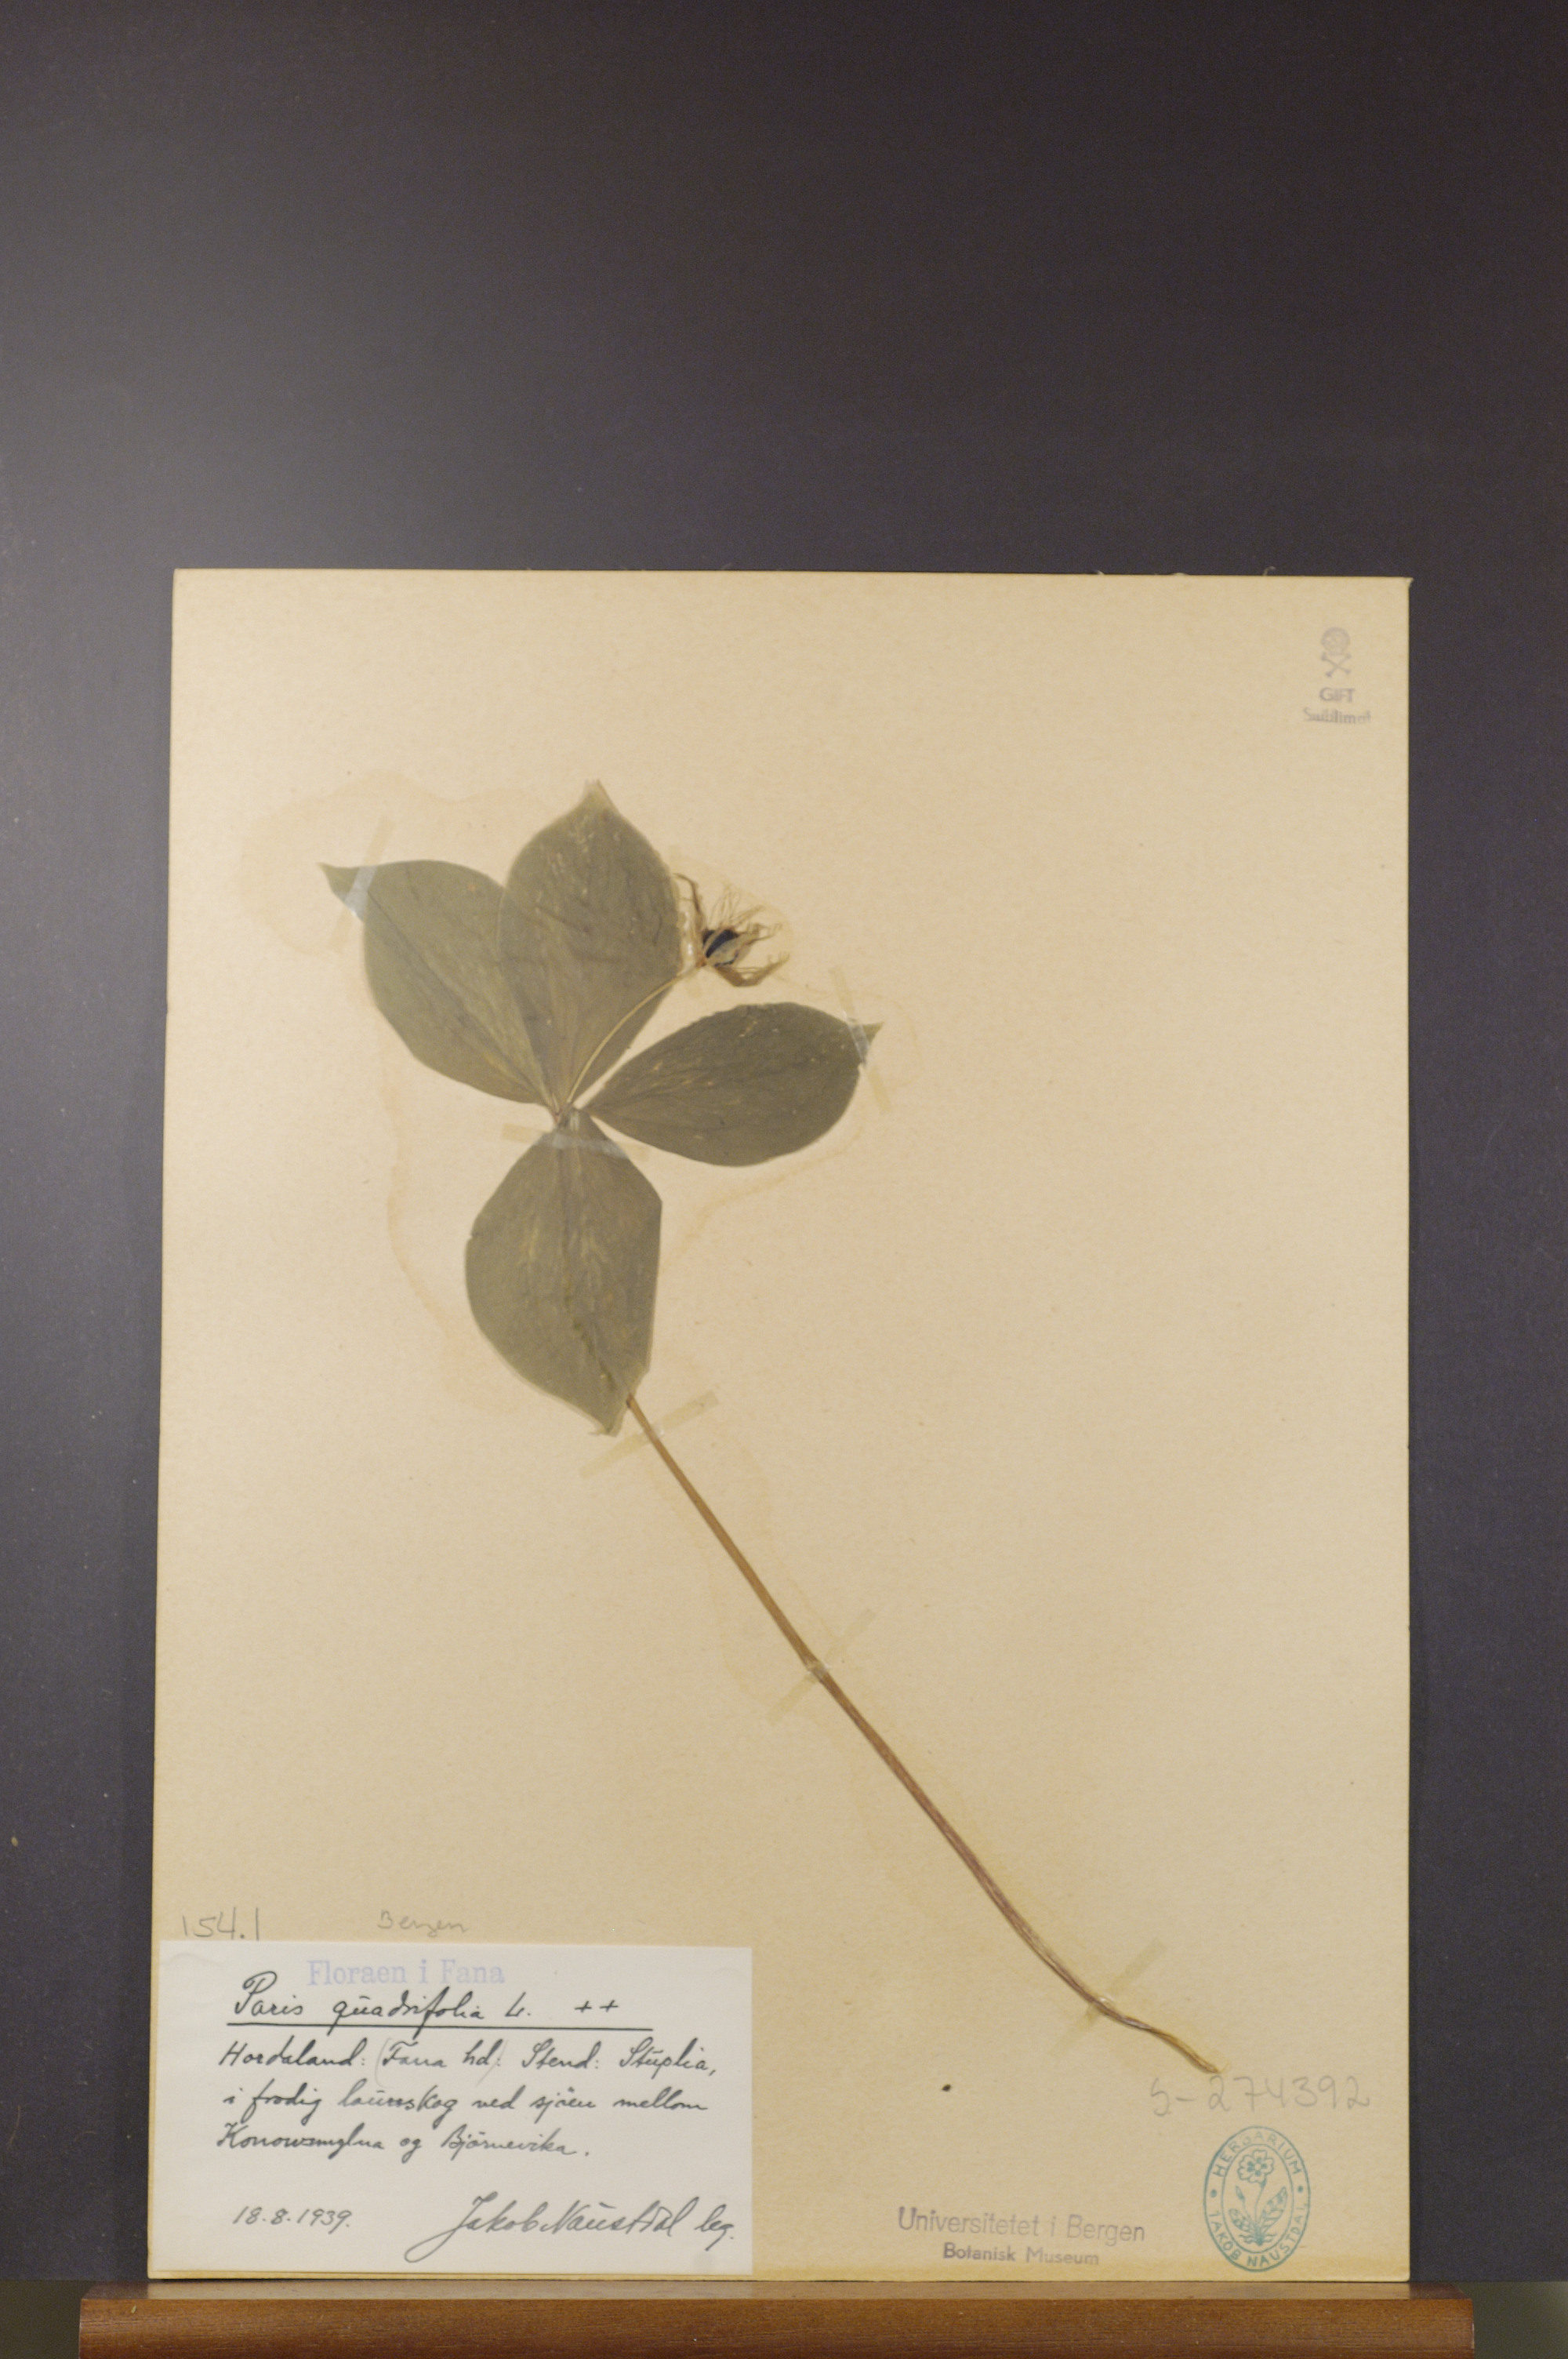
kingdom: Plantae
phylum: Tracheophyta
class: Liliopsida
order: Liliales
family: Melanthiaceae
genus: Paris
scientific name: Paris quadrifolia
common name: Herb-paris
